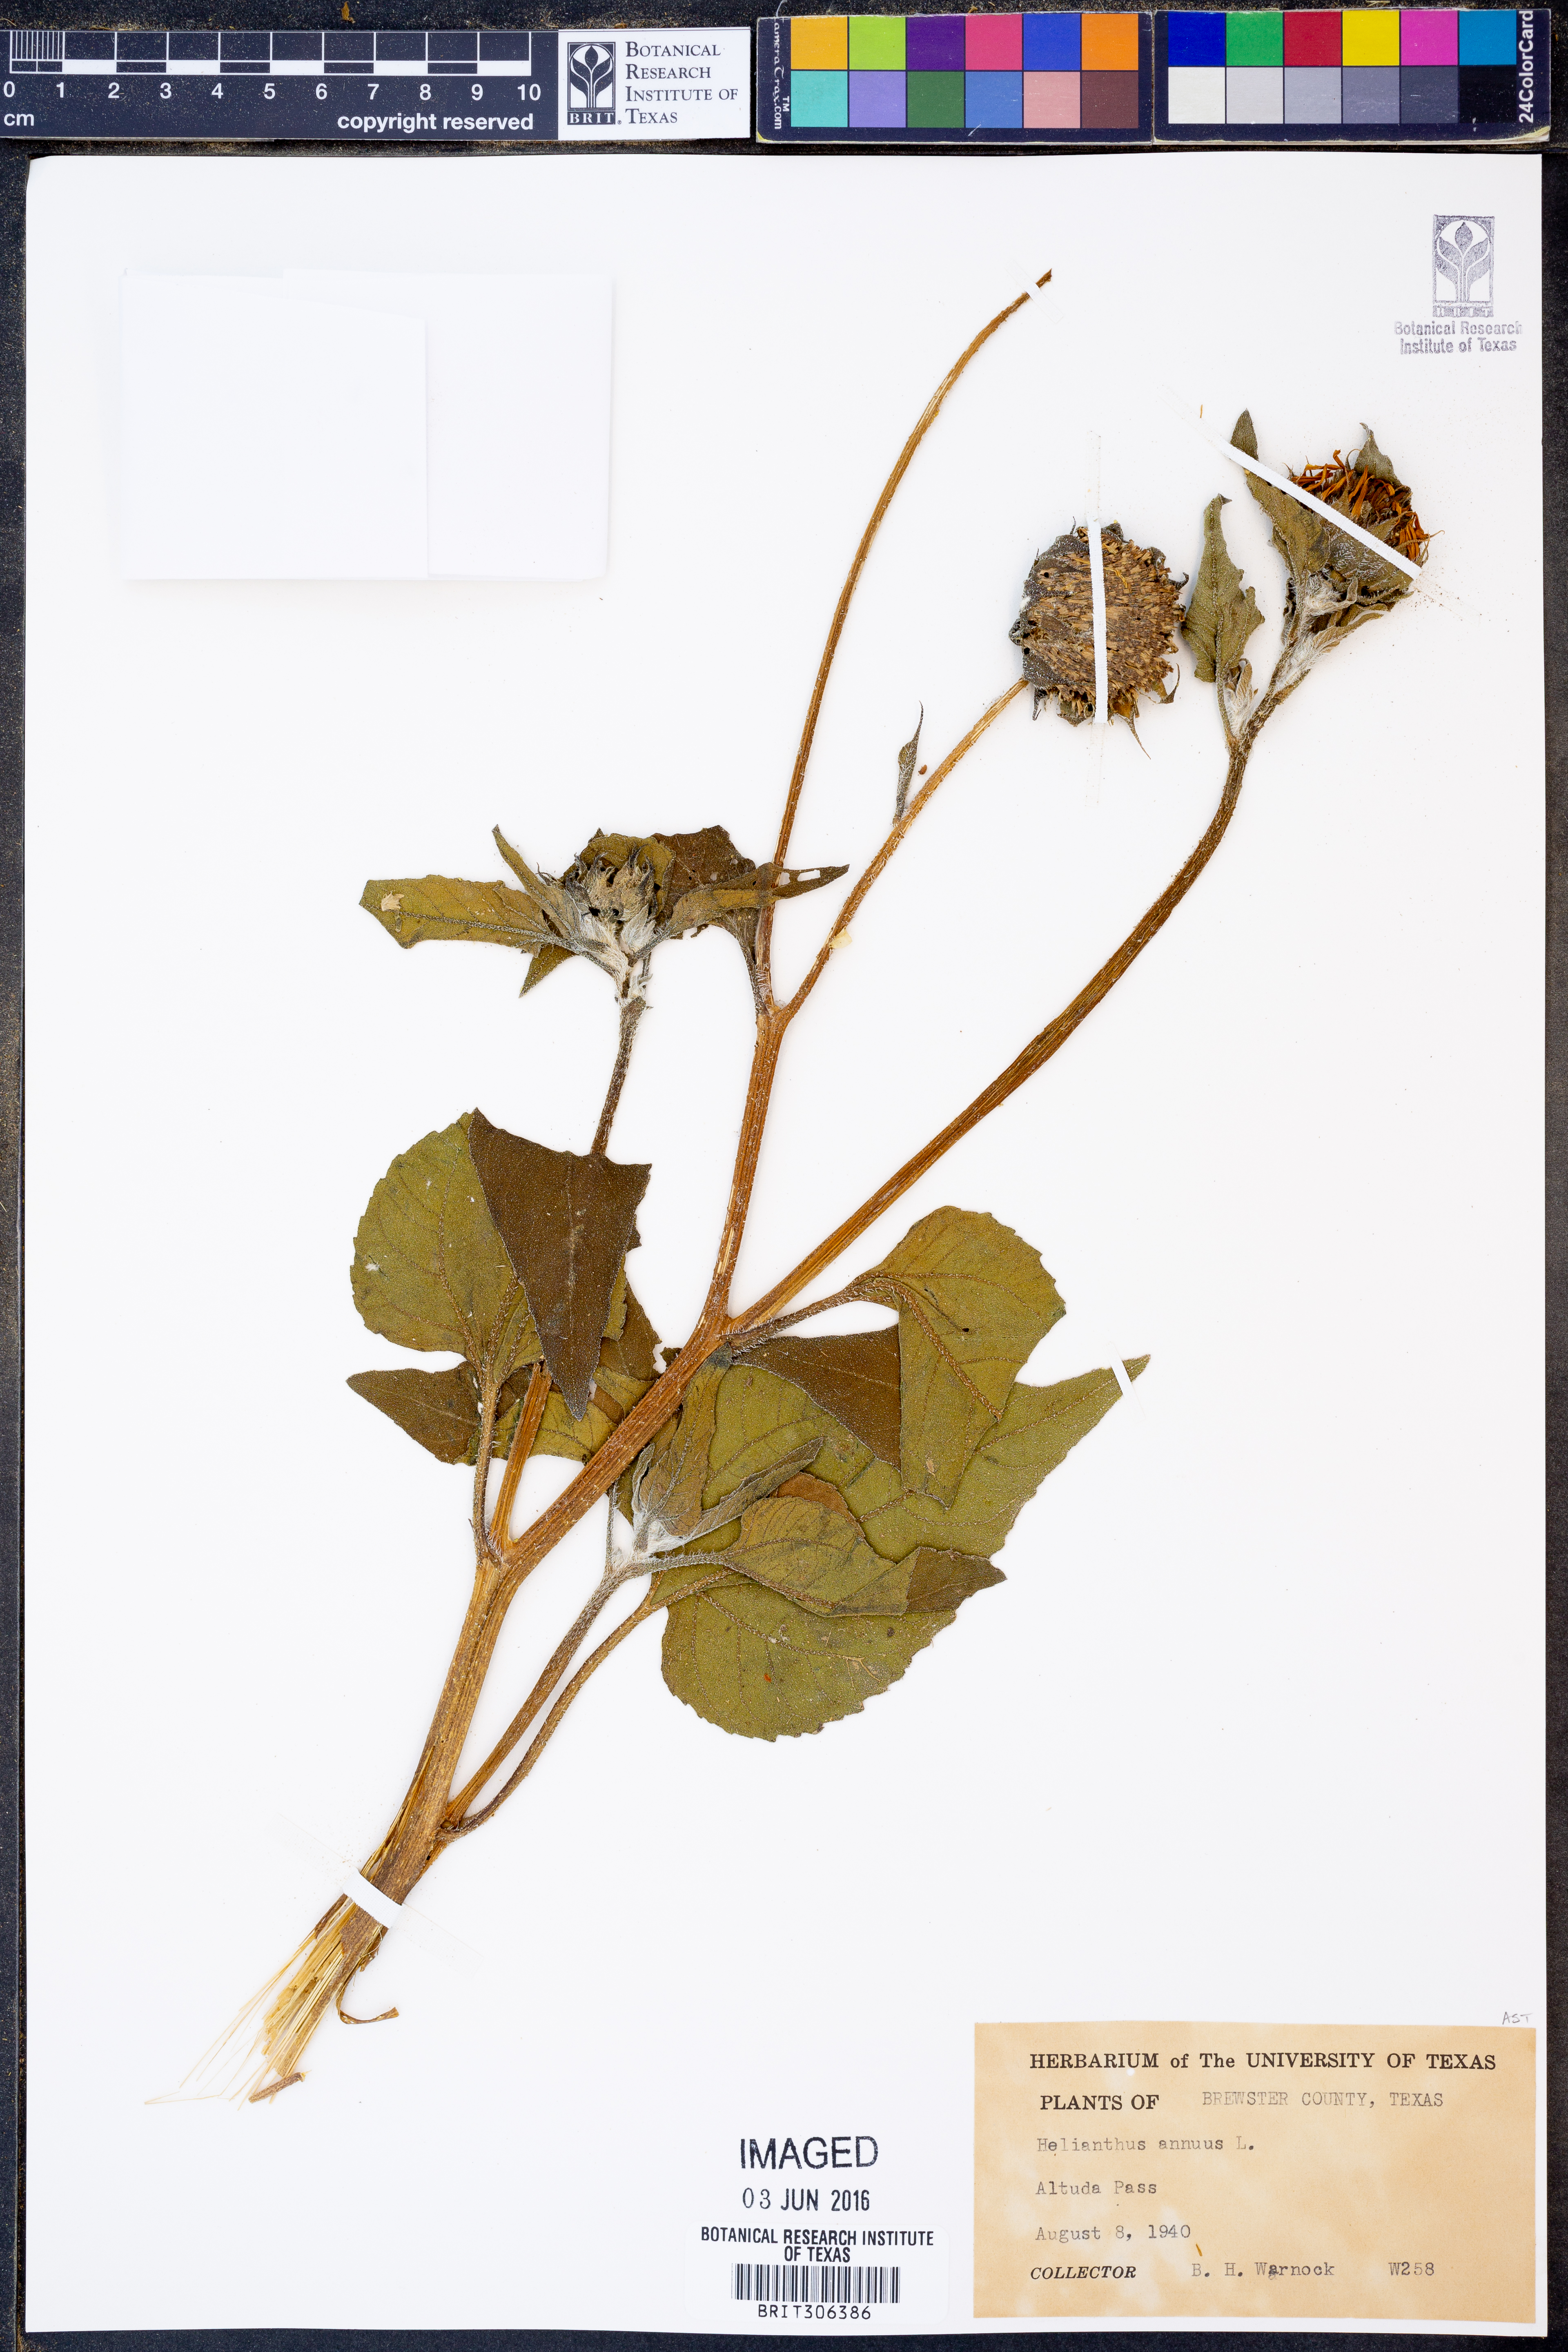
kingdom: Plantae
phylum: Tracheophyta
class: Magnoliopsida
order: Asterales
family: Asteraceae
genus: Helianthus
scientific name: Helianthus annuus
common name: Sunflower
